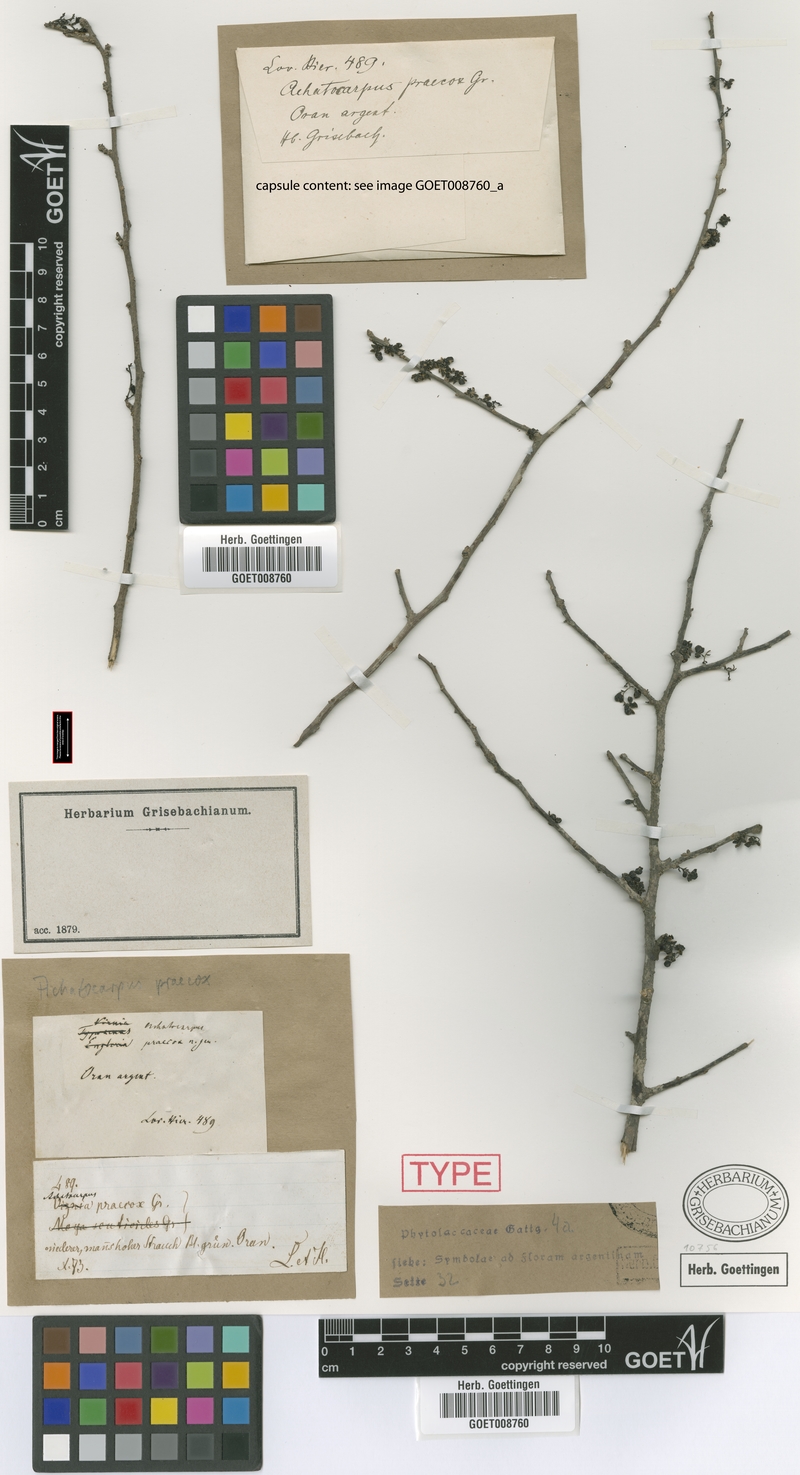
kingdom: Plantae
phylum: Tracheophyta
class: Magnoliopsida
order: Caryophyllales
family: Achatocarpaceae
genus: Achatocarpus
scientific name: Achatocarpus praecox
